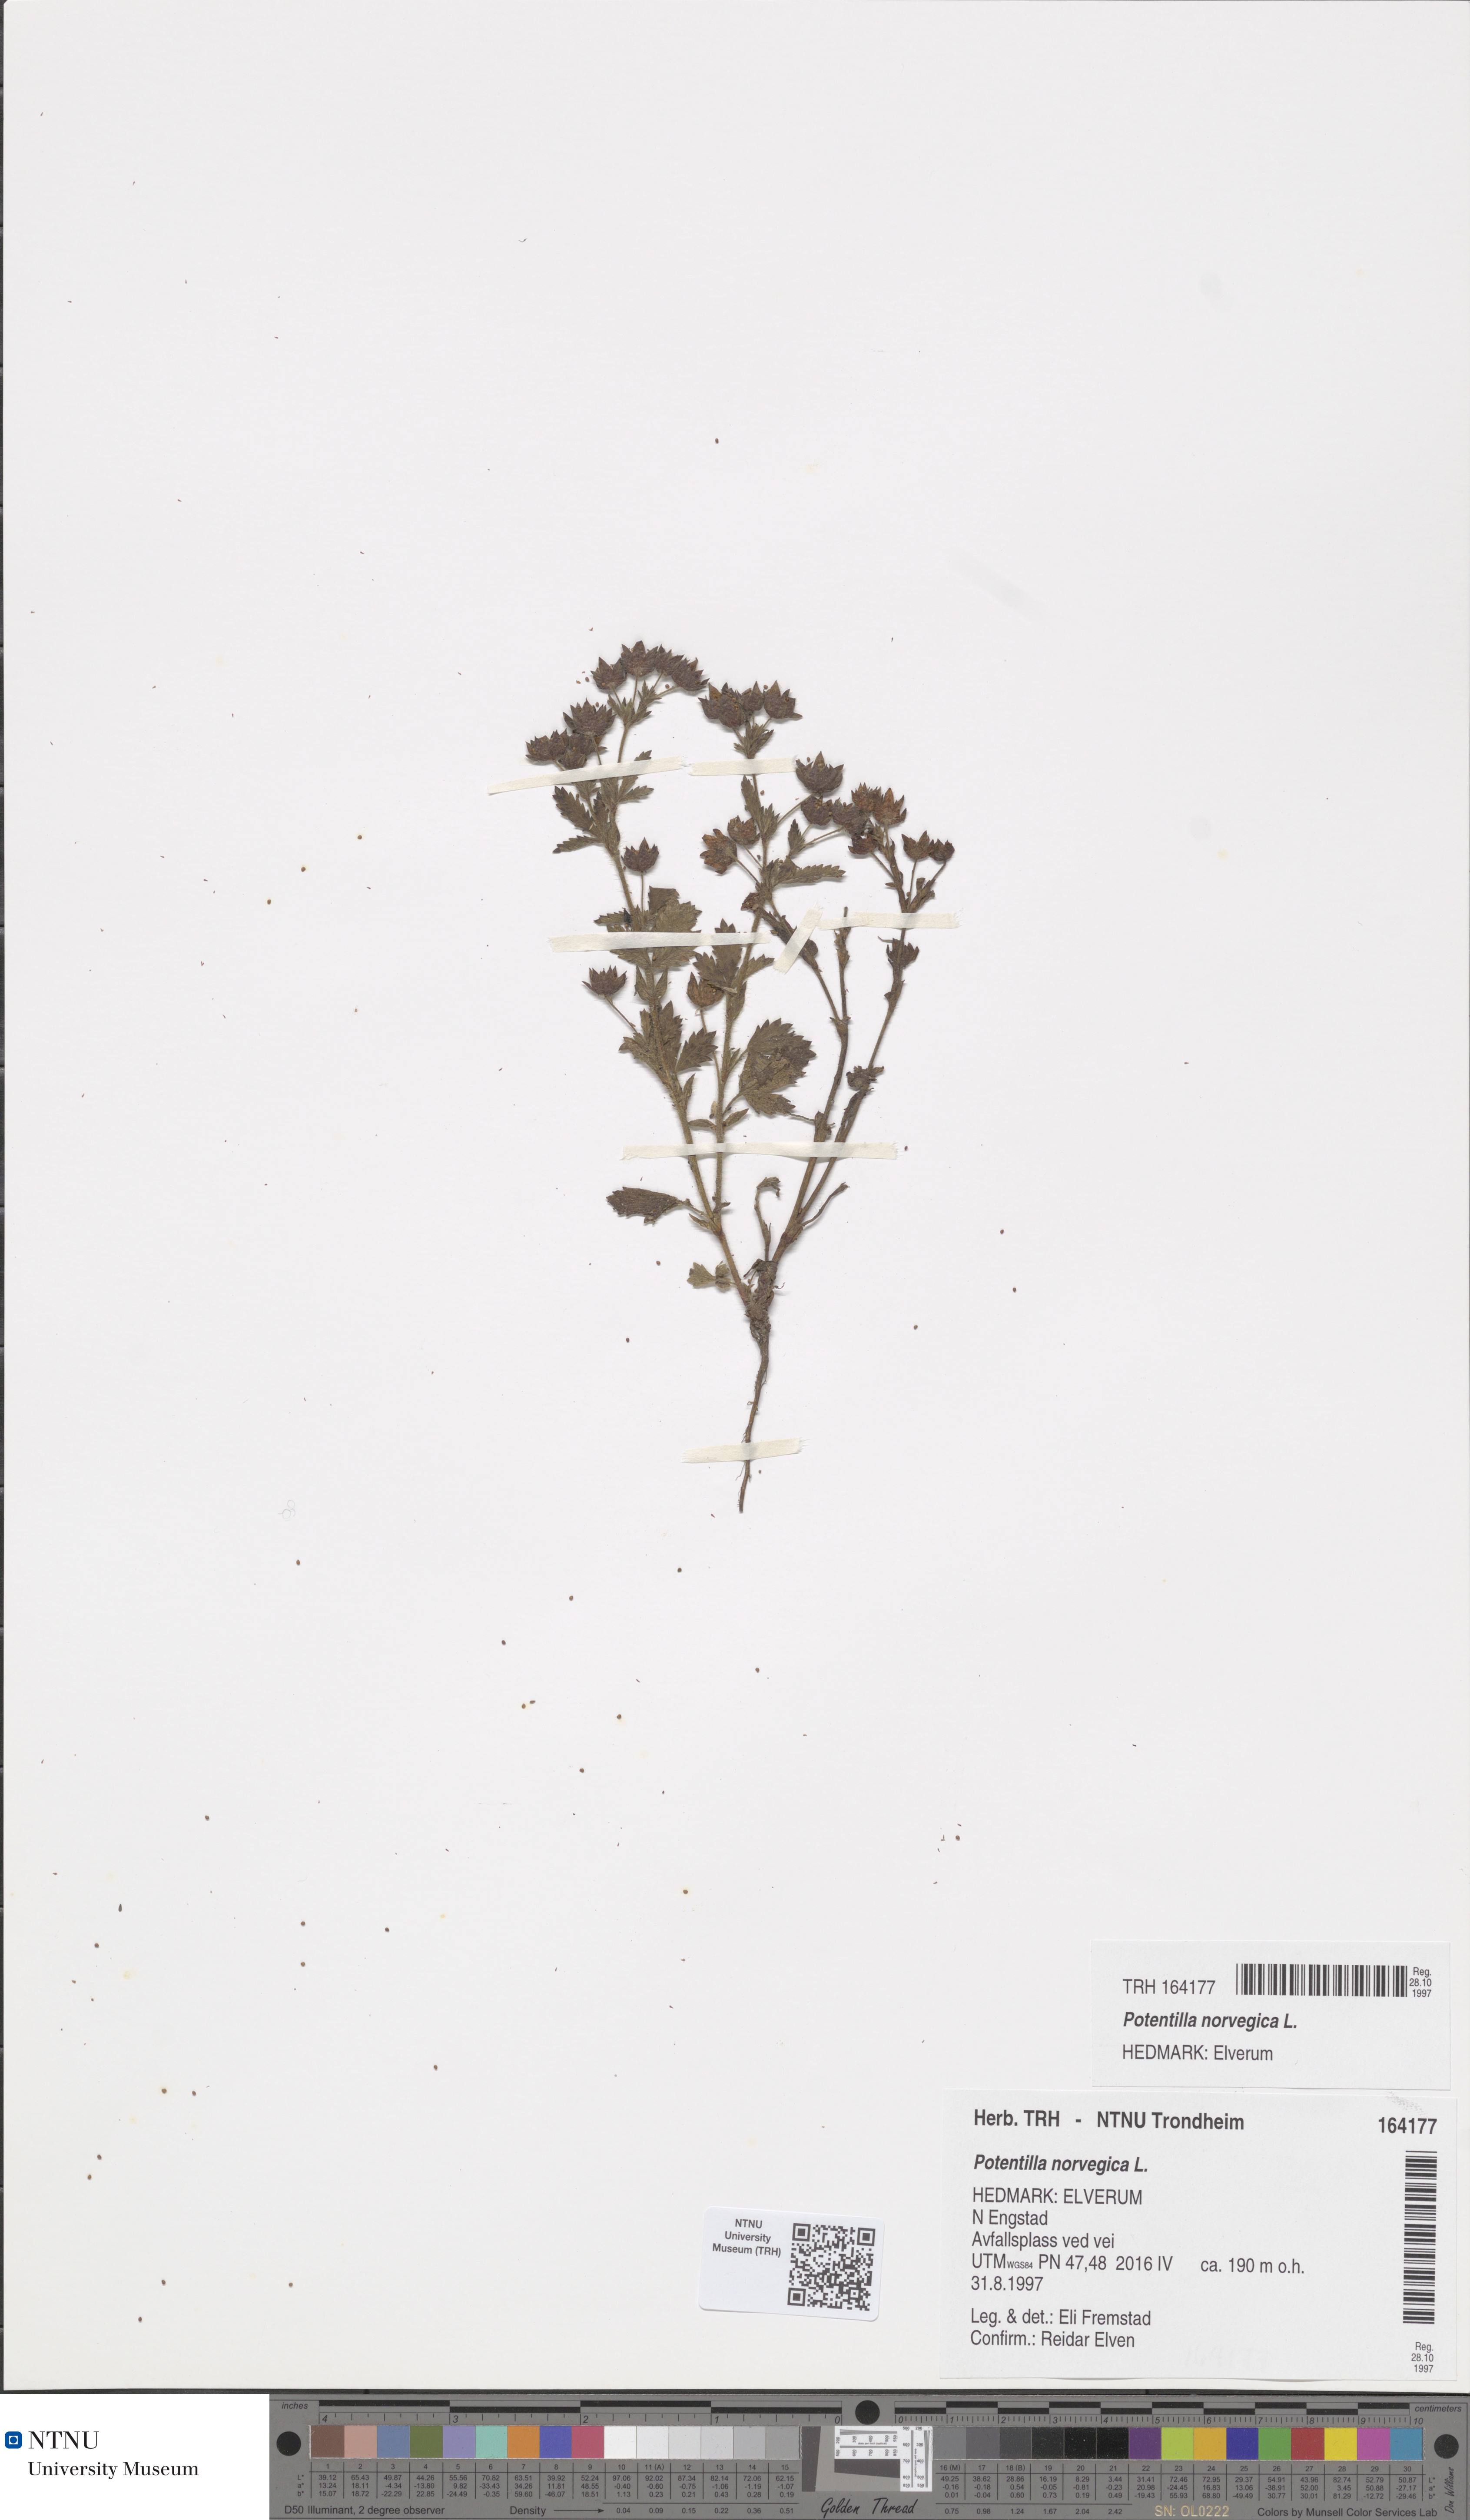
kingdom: Plantae
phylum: Tracheophyta
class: Magnoliopsida
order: Rosales
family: Rosaceae
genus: Potentilla
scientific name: Potentilla norvegica
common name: Ternate-leaved cinquefoil
